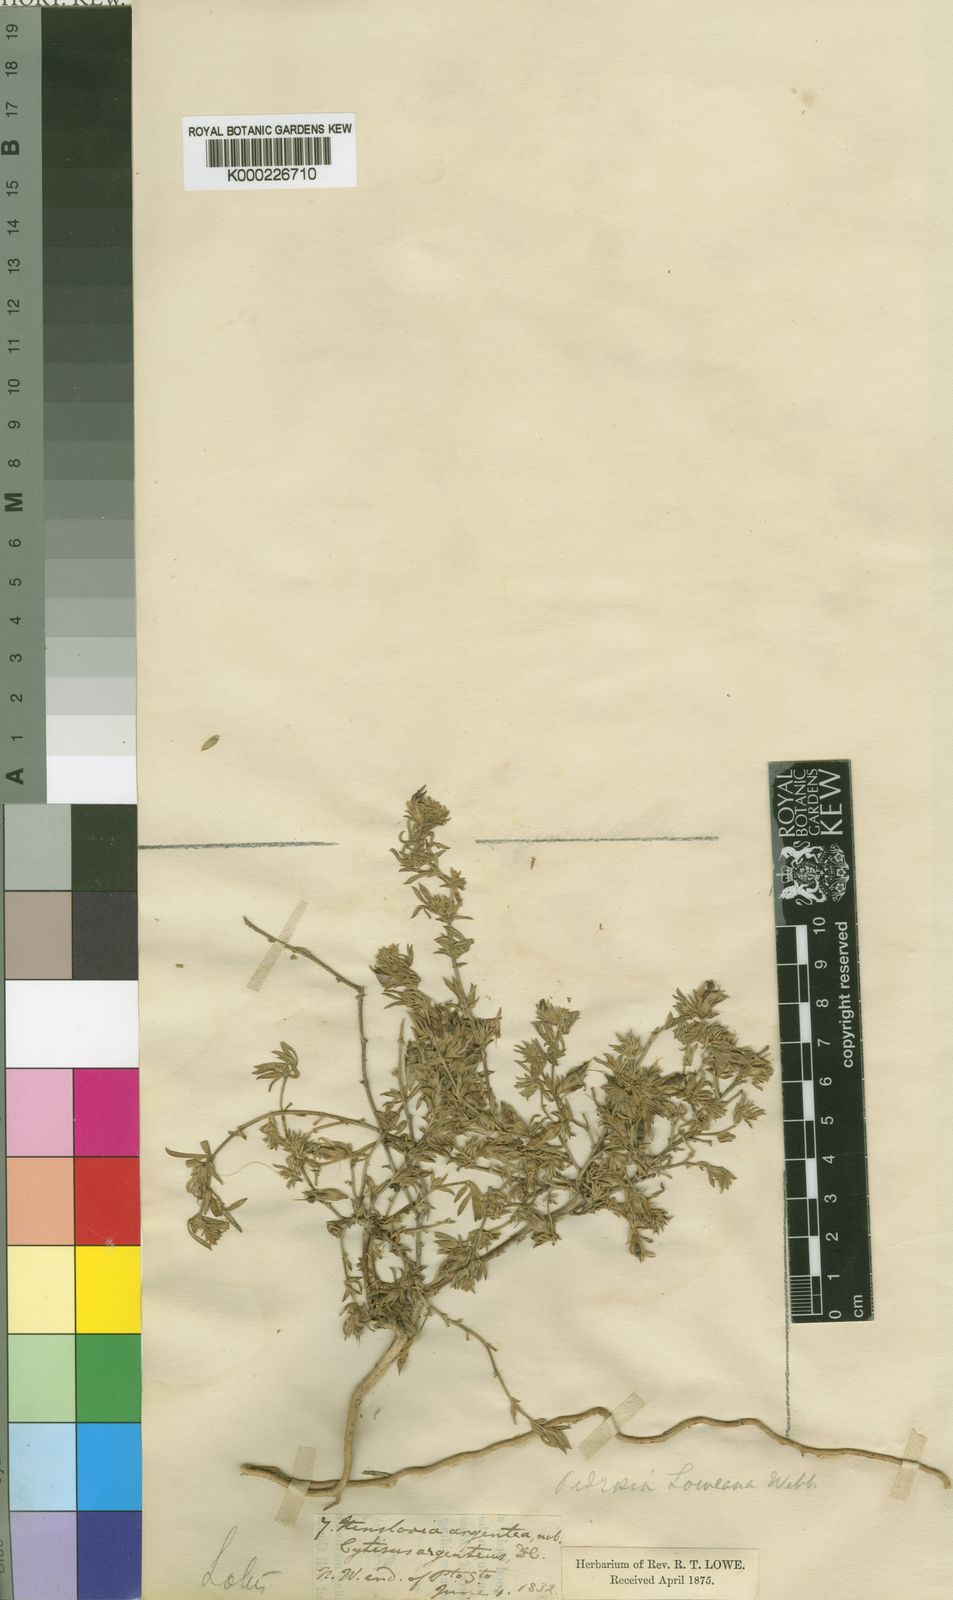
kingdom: Plantae
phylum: Tracheophyta
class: Magnoliopsida
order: Fabales
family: Fabaceae
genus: Lotus
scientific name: Lotus loweanus
